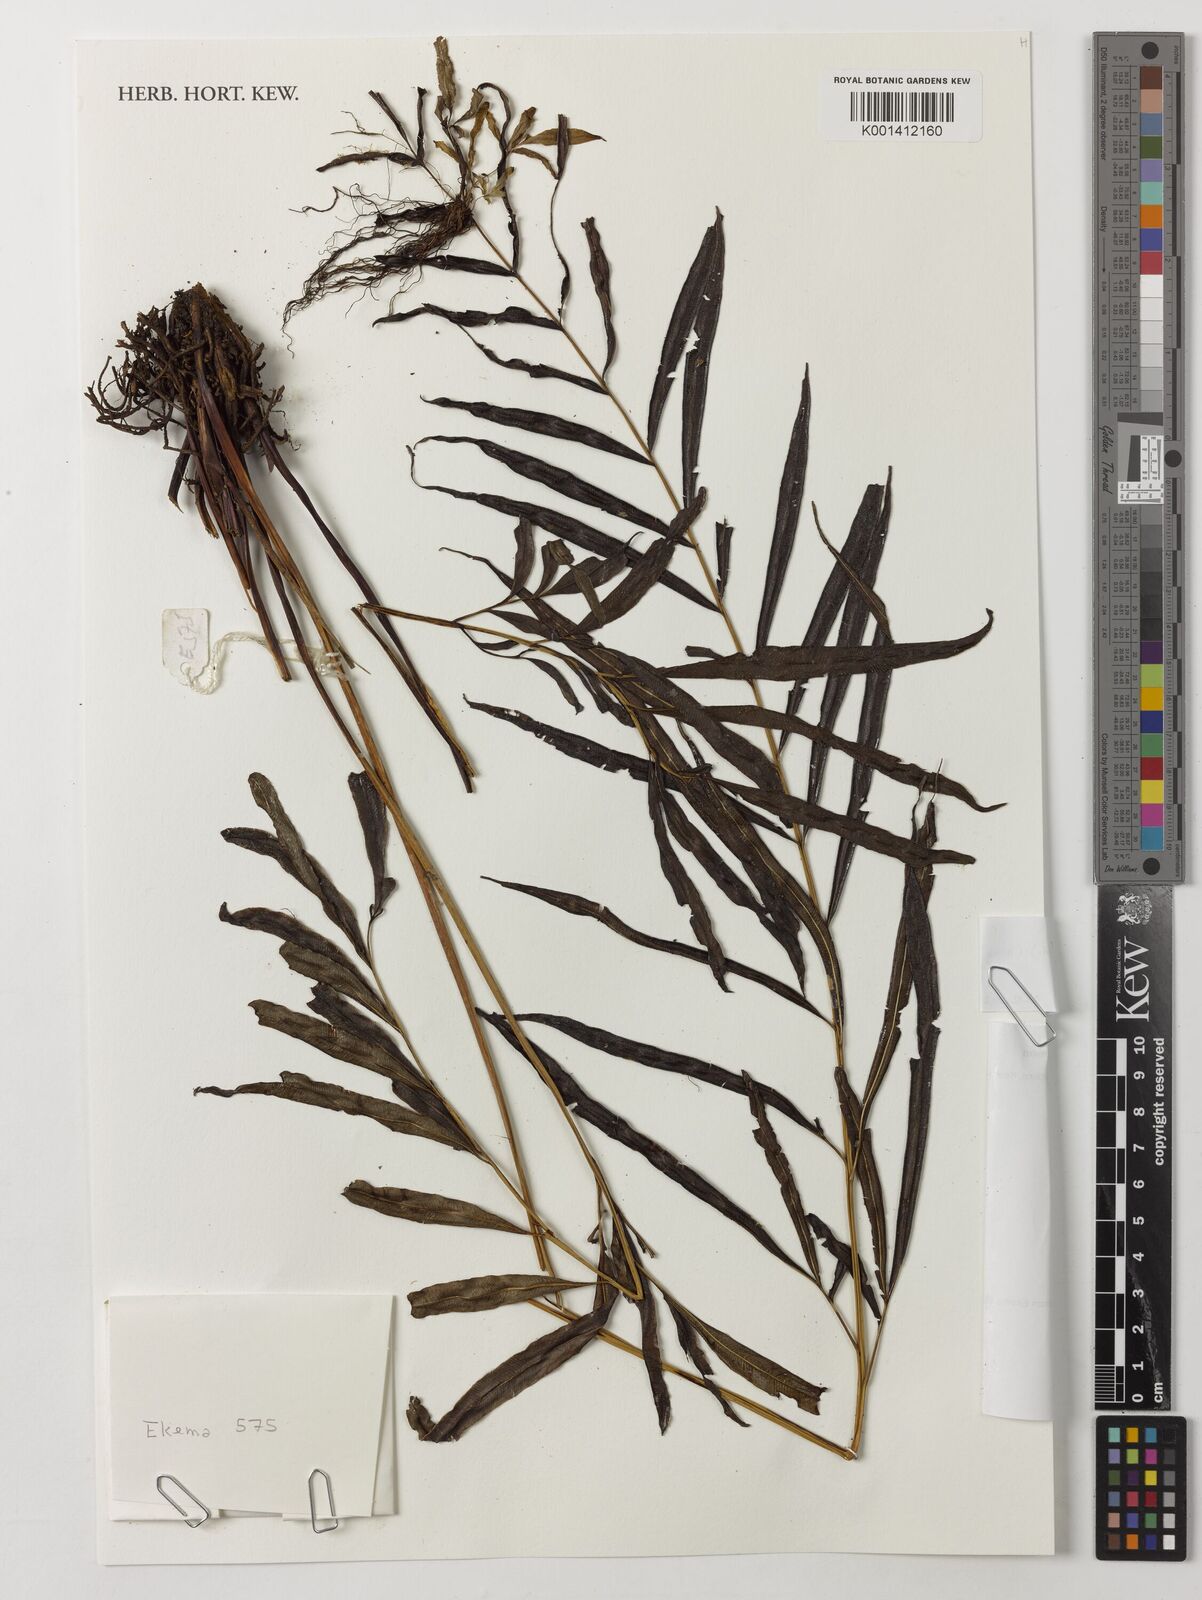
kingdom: Plantae
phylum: Tracheophyta
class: Polypodiopsida
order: Polypodiales
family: Dryopteridaceae
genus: Bolbitis
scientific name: Bolbitis salicina
